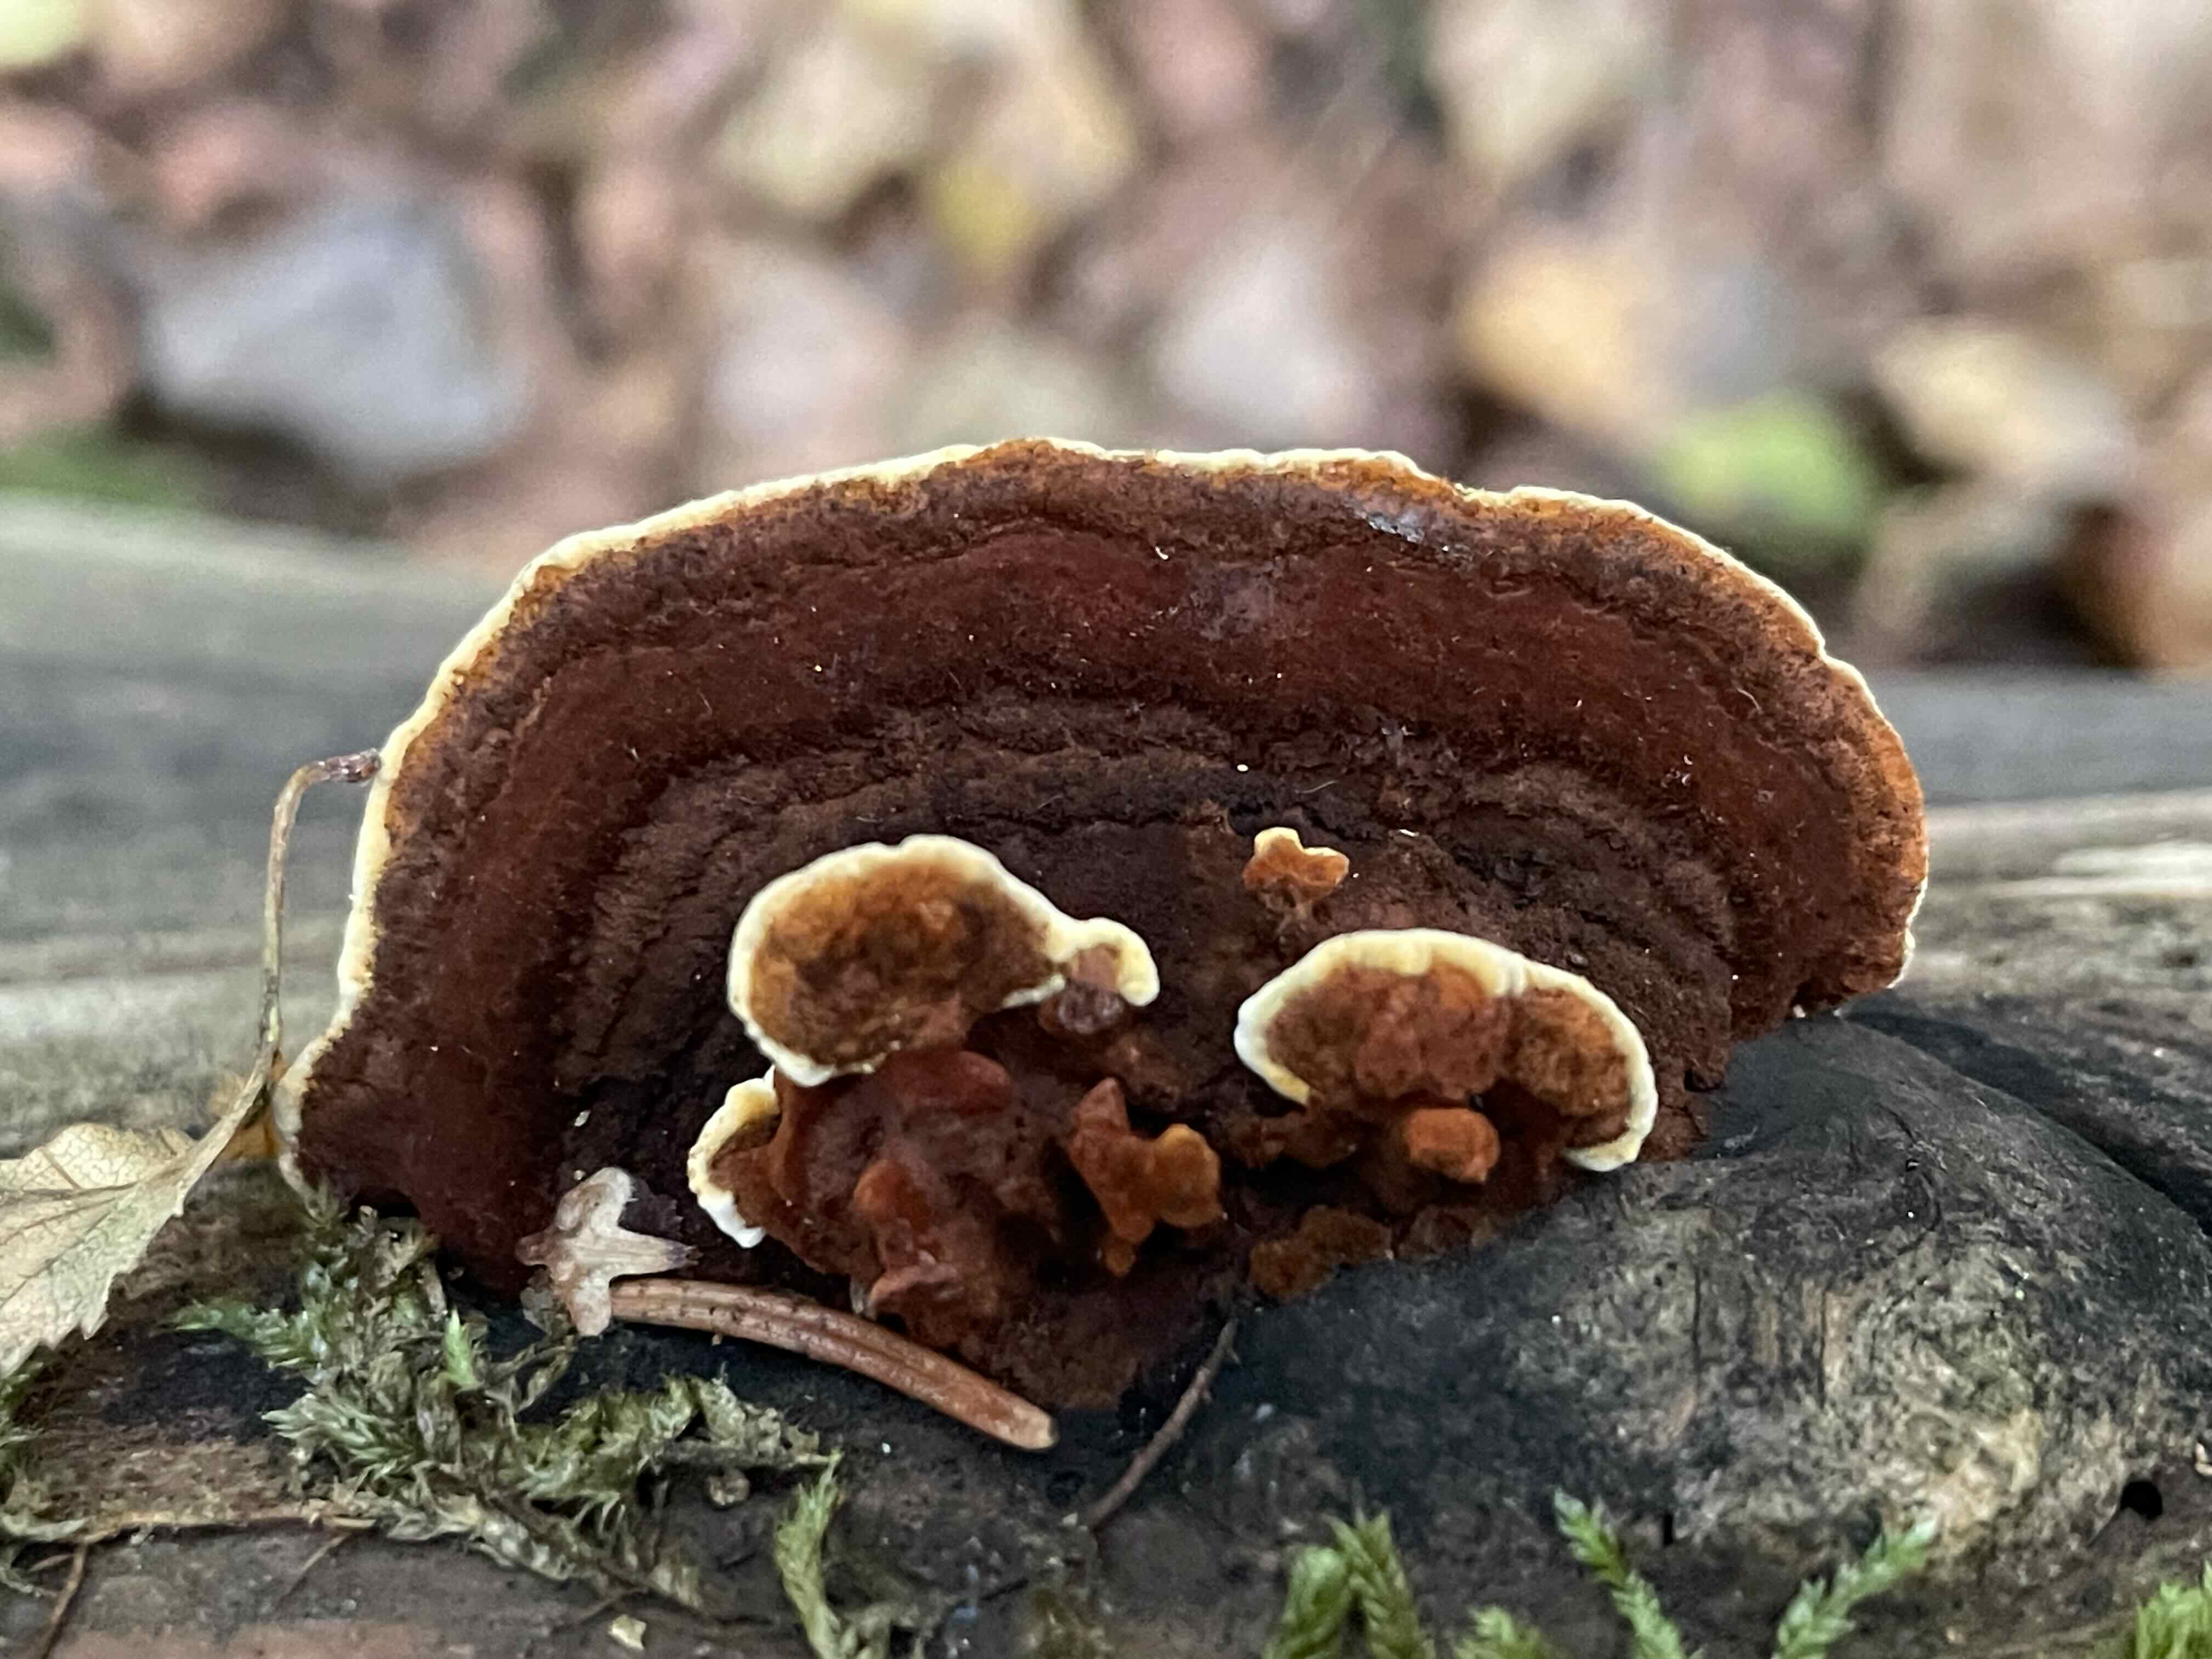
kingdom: Fungi
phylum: Basidiomycota
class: Agaricomycetes
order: Gloeophyllales
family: Gloeophyllaceae
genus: Gloeophyllum
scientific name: Gloeophyllum sepiarium
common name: fyrre-korkhat
